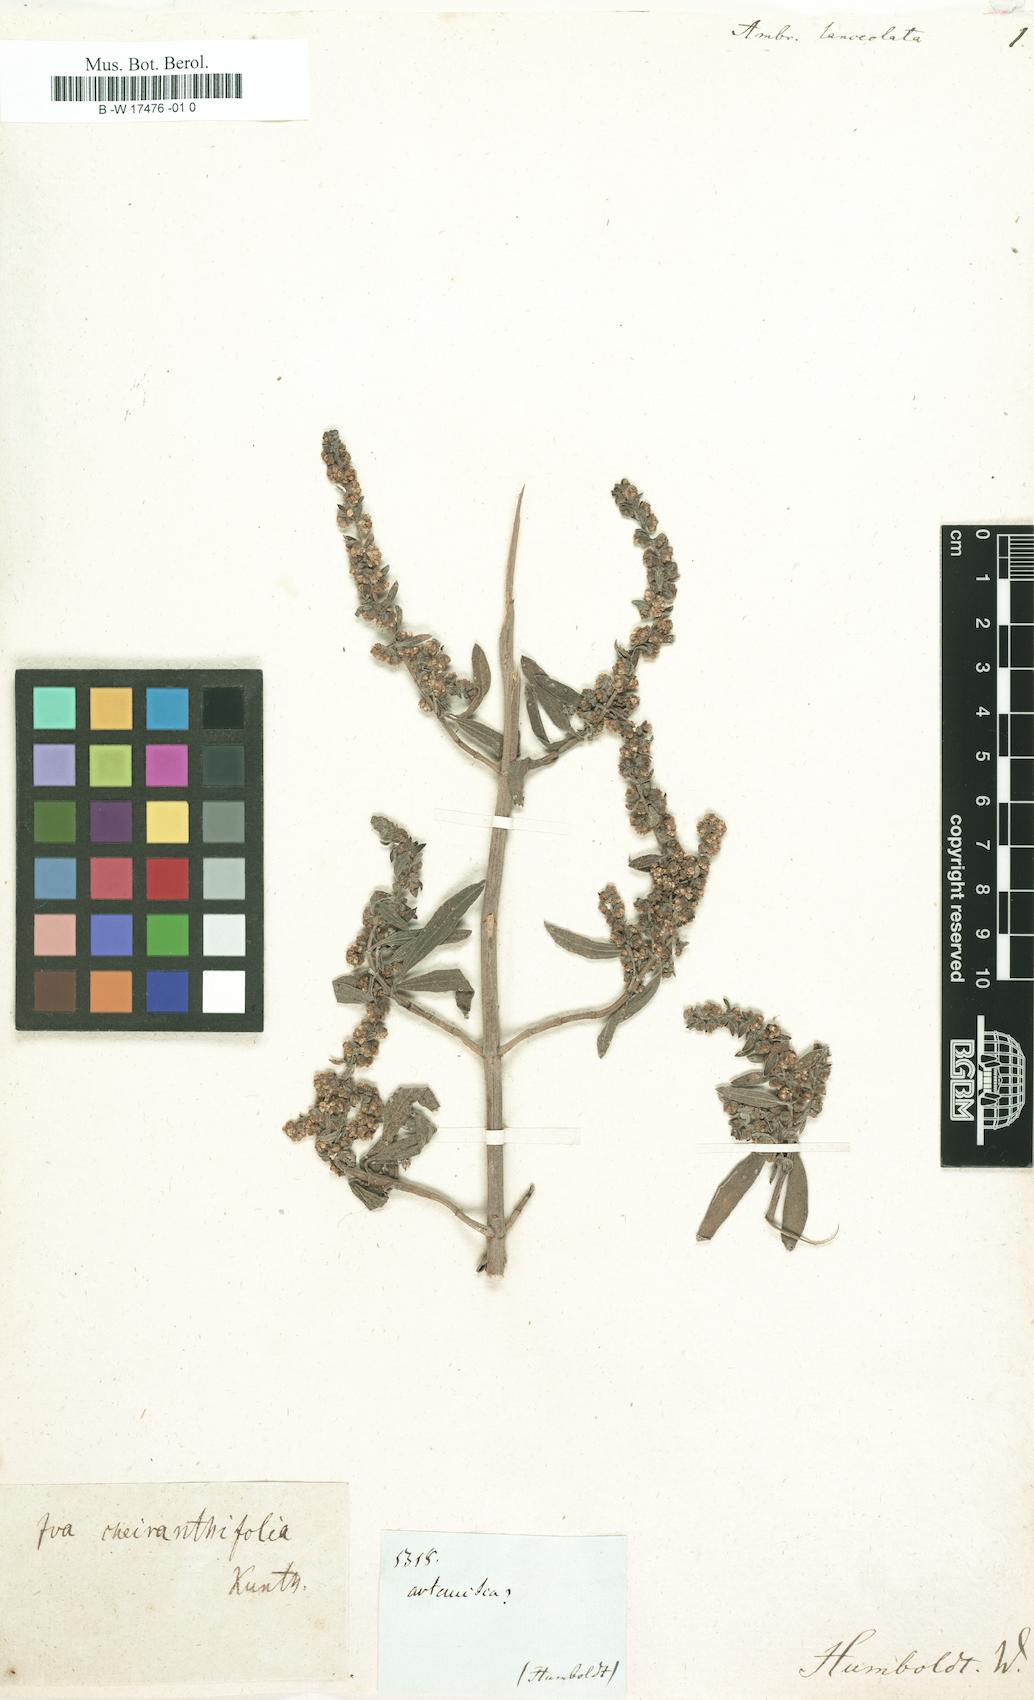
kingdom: Plantae
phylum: Tracheophyta
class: Magnoliopsida
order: Asterales
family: Asteraceae
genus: Ambrosia
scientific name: Ambrosia
